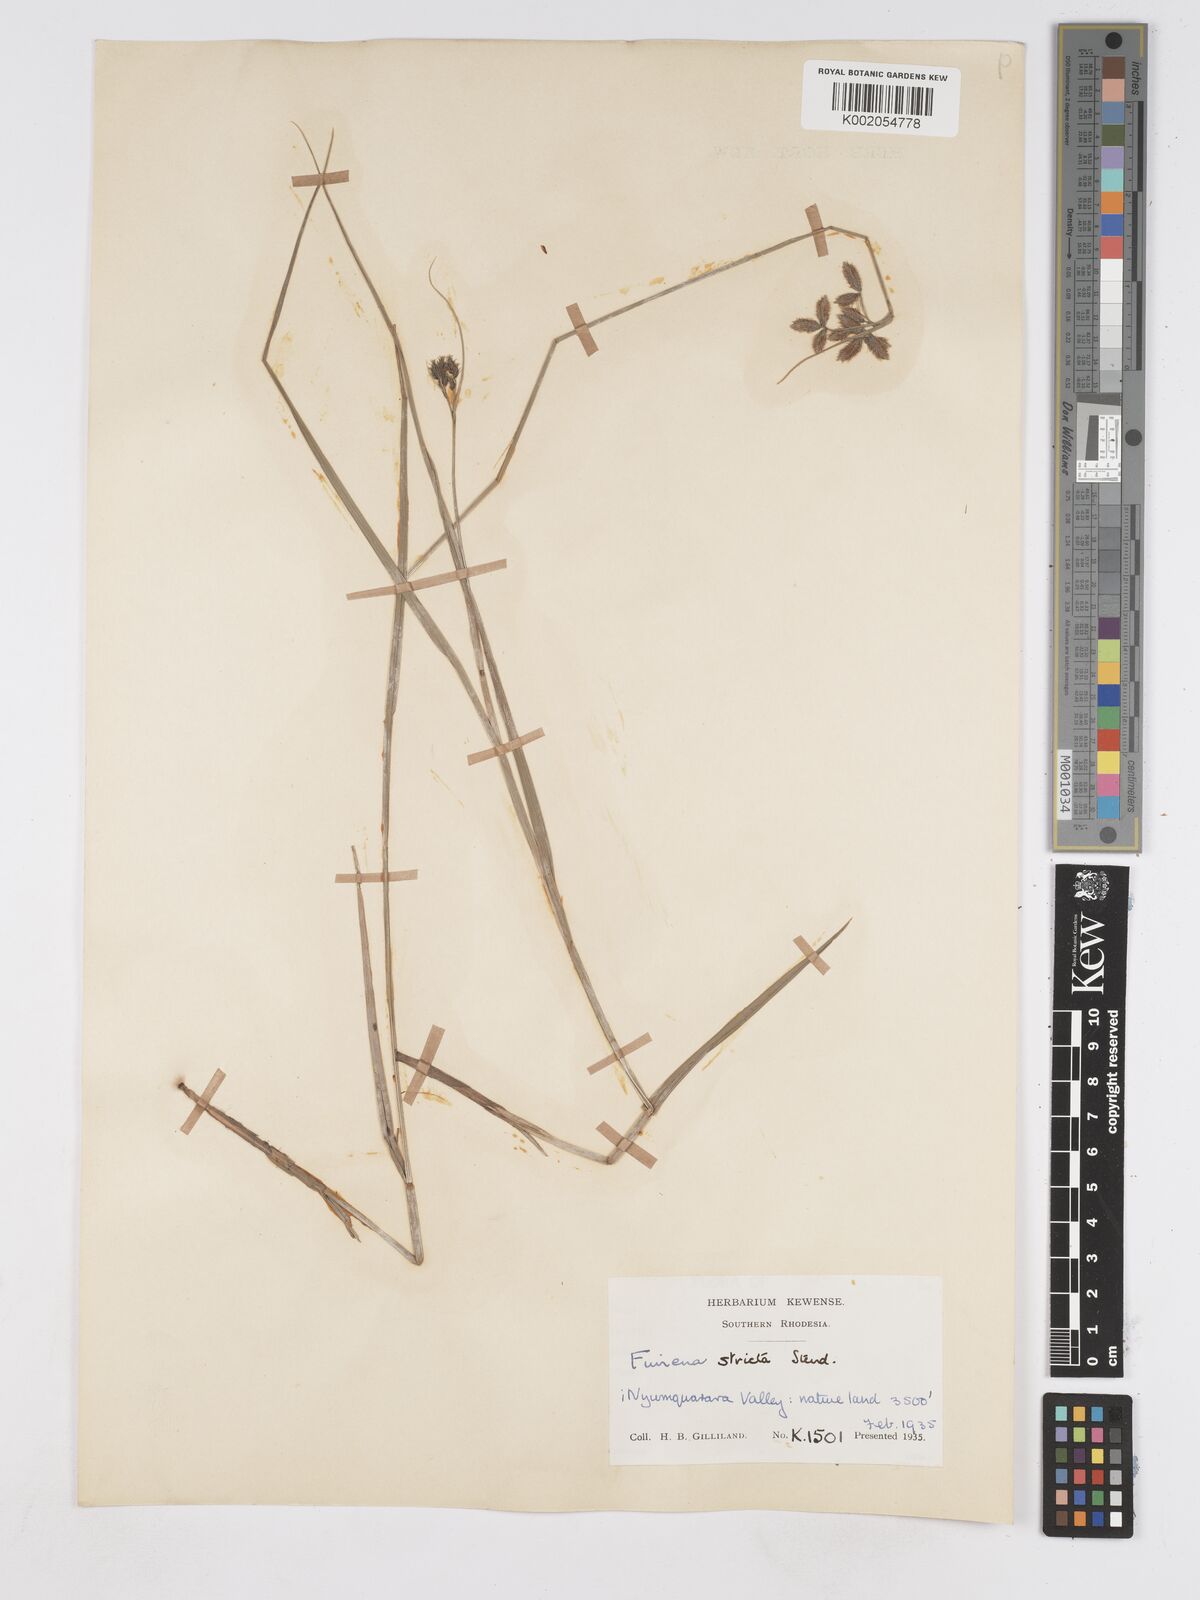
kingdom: Plantae
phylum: Tracheophyta
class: Liliopsida
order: Poales
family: Cyperaceae
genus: Fuirena
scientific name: Fuirena stricta
